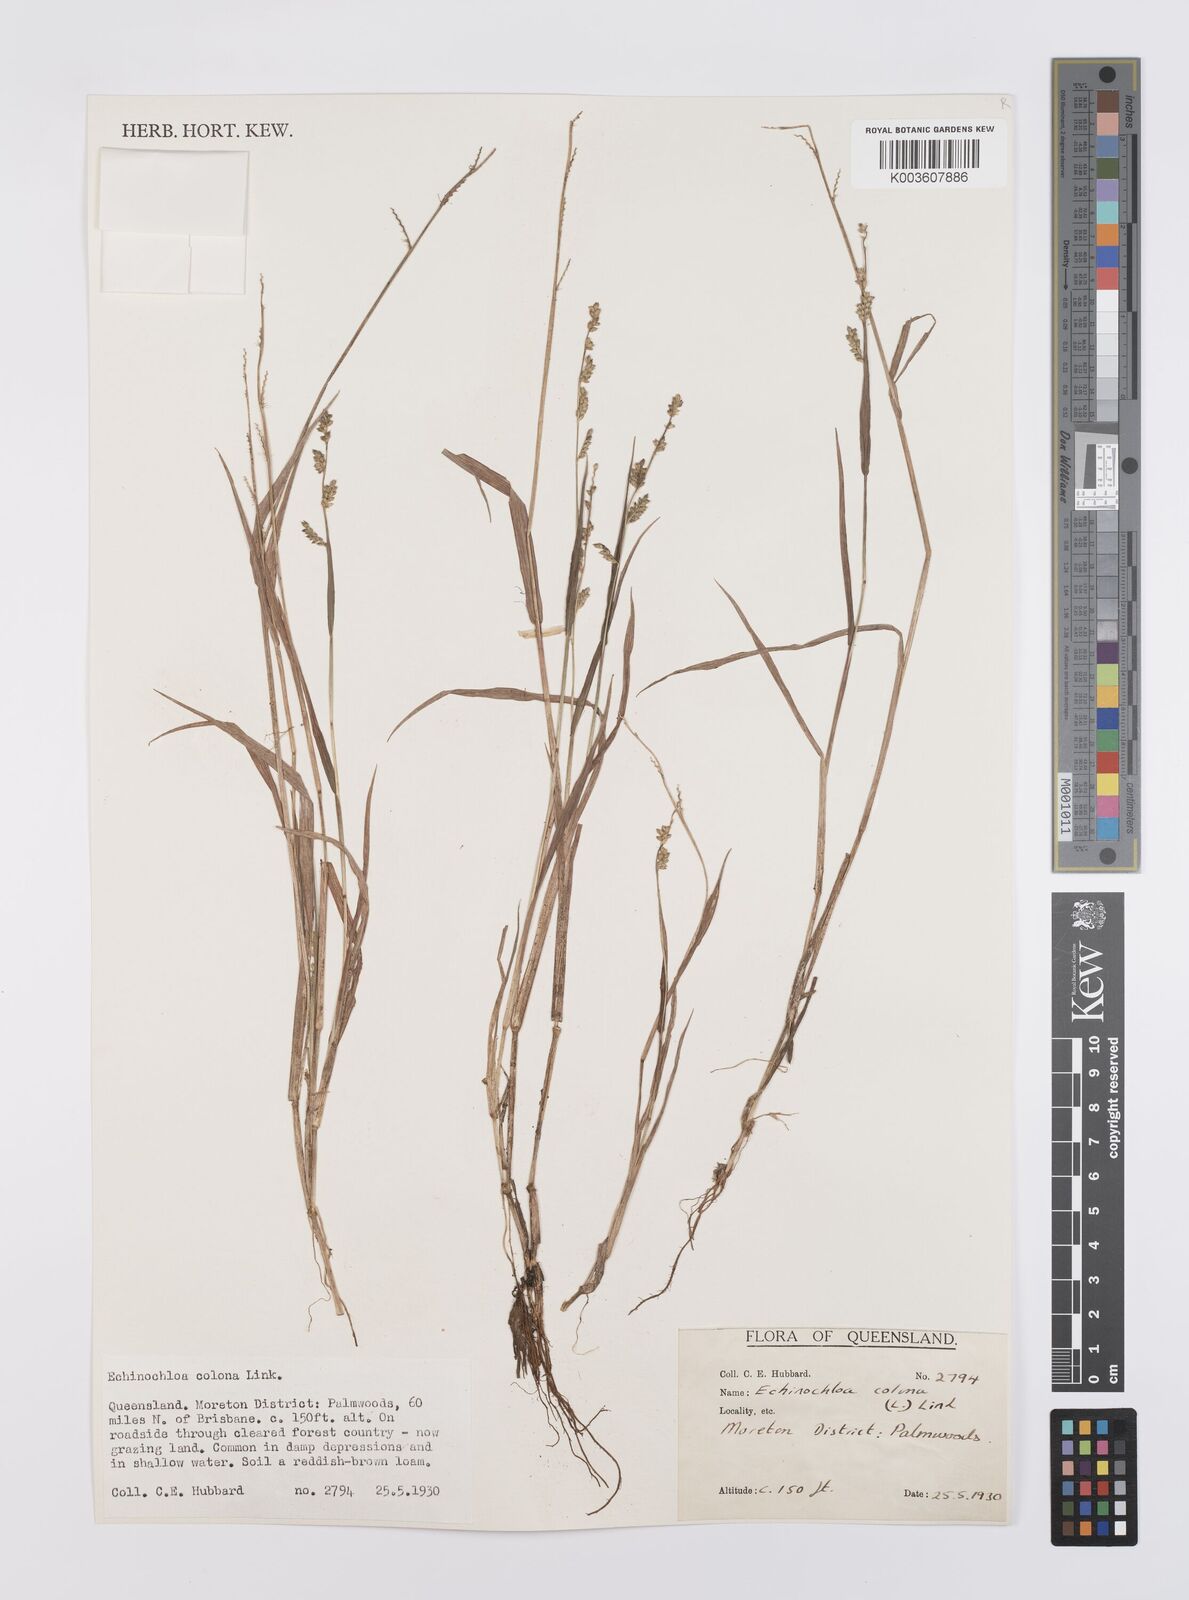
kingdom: Plantae
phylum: Tracheophyta
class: Liliopsida
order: Poales
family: Poaceae
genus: Echinochloa
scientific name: Echinochloa colonum
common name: Jungle rice
